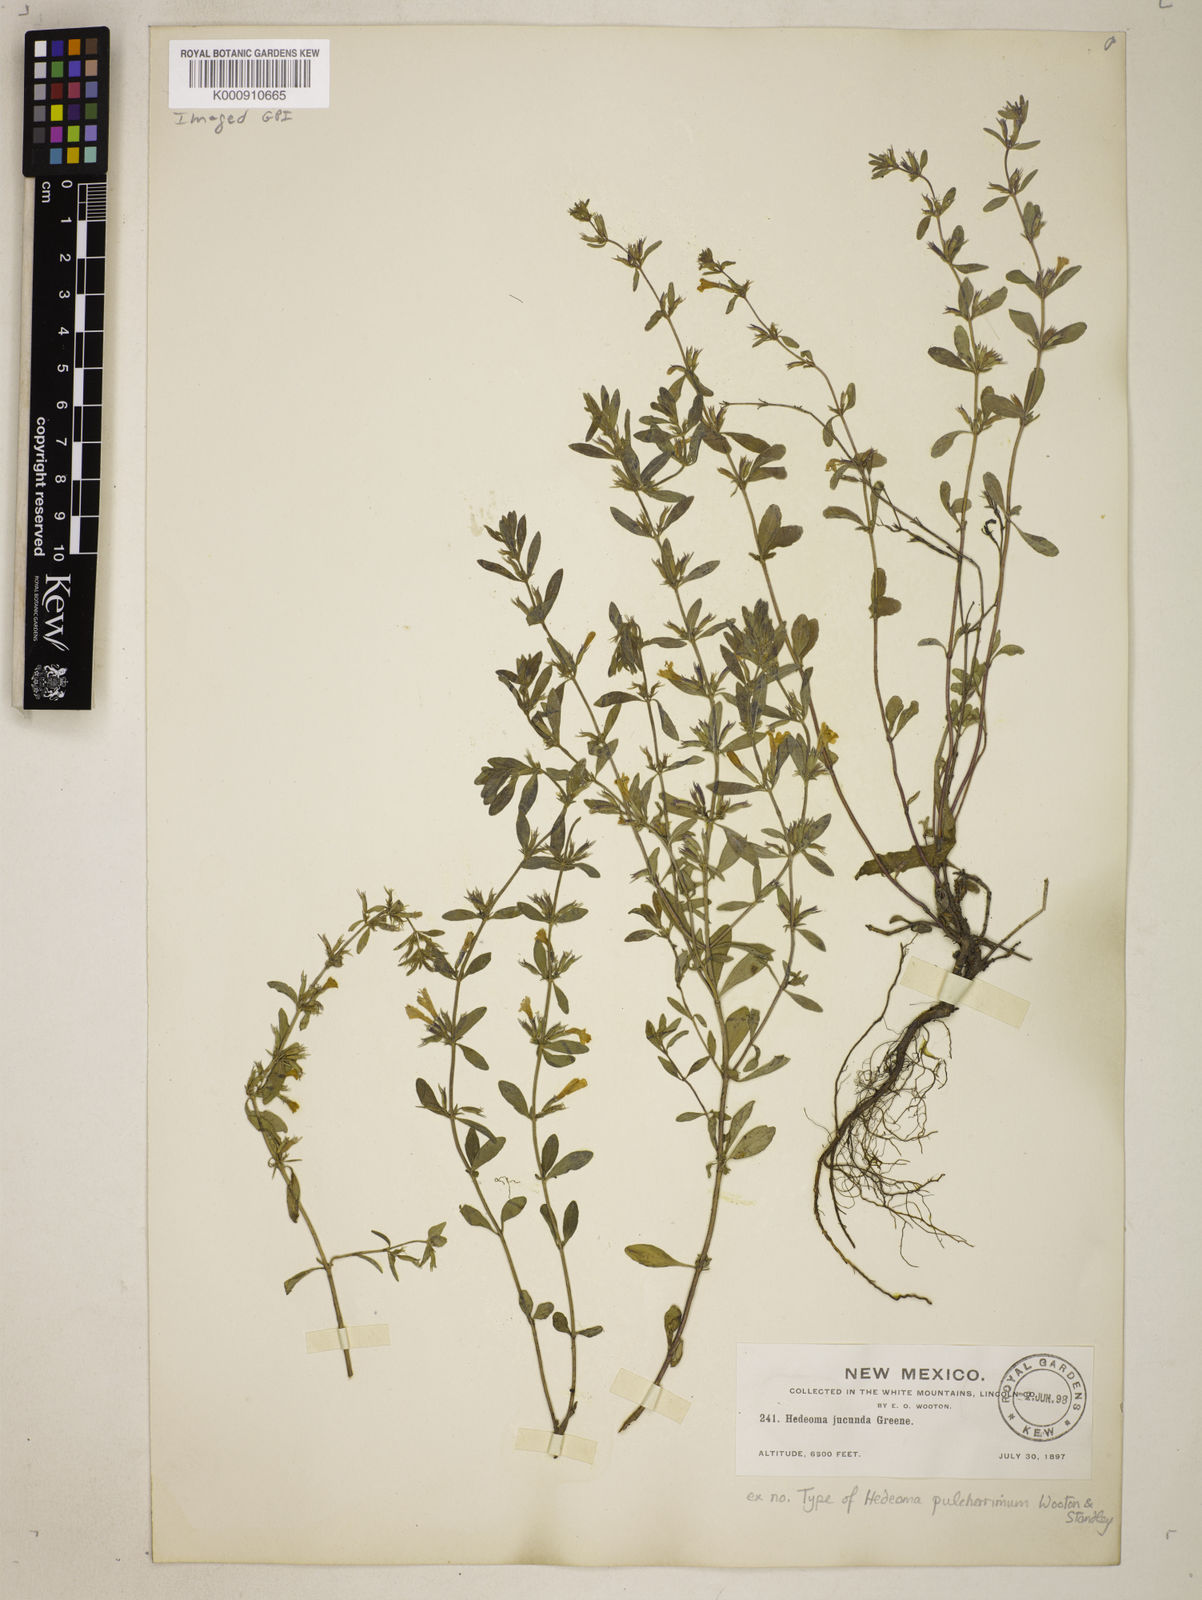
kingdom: Plantae
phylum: Tracheophyta
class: Magnoliopsida
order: Lamiales
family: Lamiaceae
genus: Hedeoma
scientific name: Hedeoma pulcherrima
